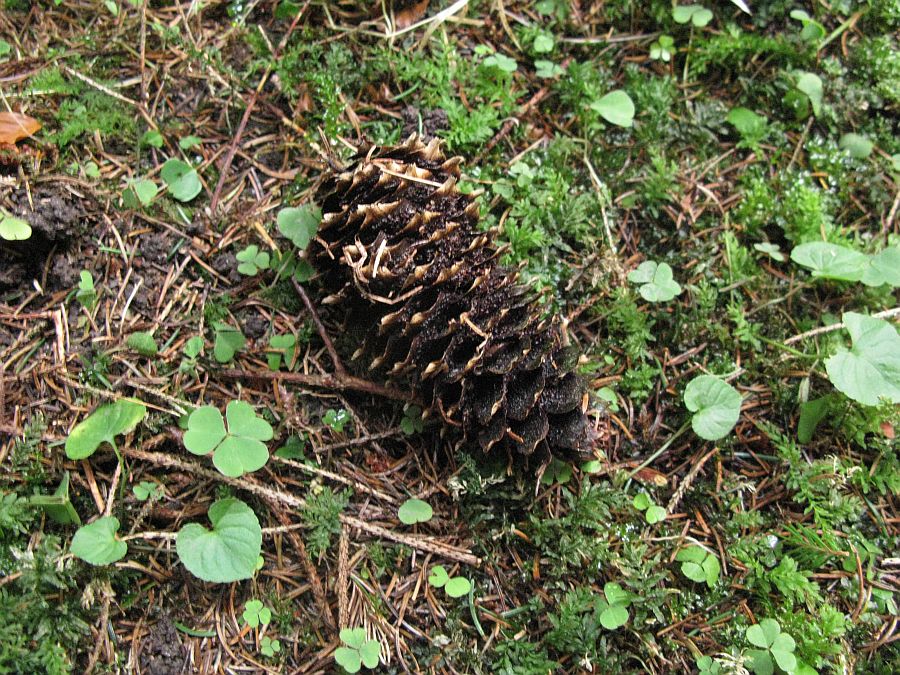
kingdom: Fungi
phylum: Basidiomycota
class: Pucciniomycetes
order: Pucciniales
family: Pucciniastraceae
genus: Thekopsora
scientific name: Thekopsora areolata
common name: grankogle-nålerust
